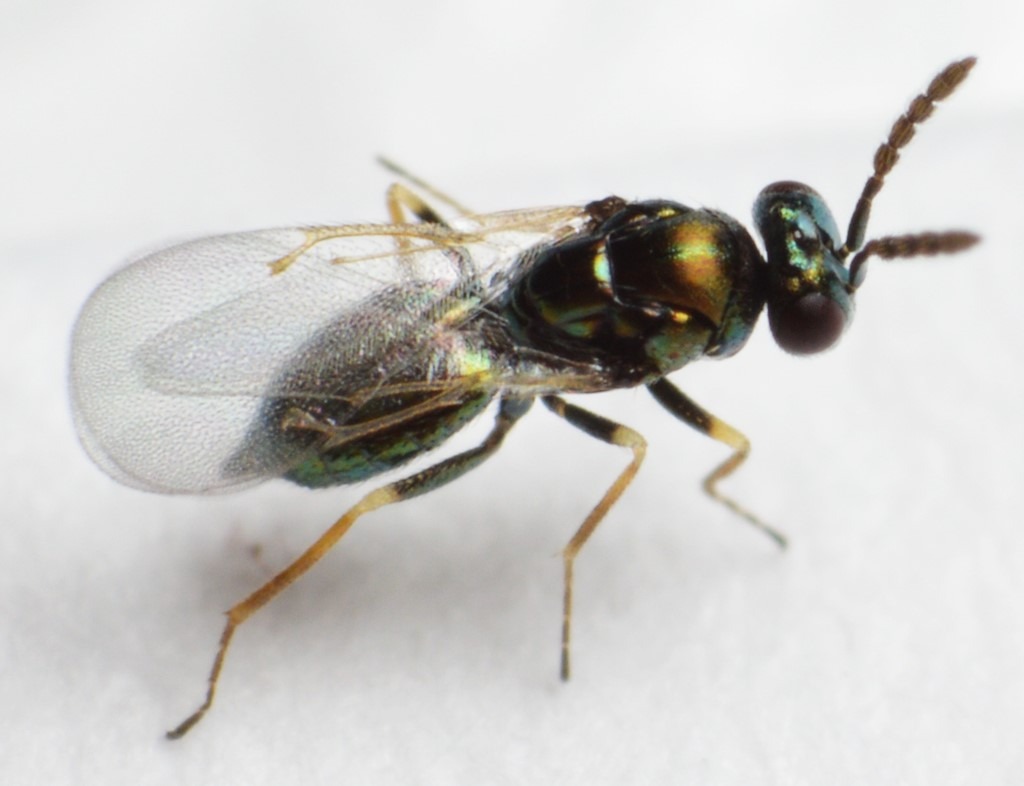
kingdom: Animalia
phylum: Arthropoda
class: Insecta
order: Hymenoptera
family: Eulophidae
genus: Baryscapus
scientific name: Baryscapus galactopus
